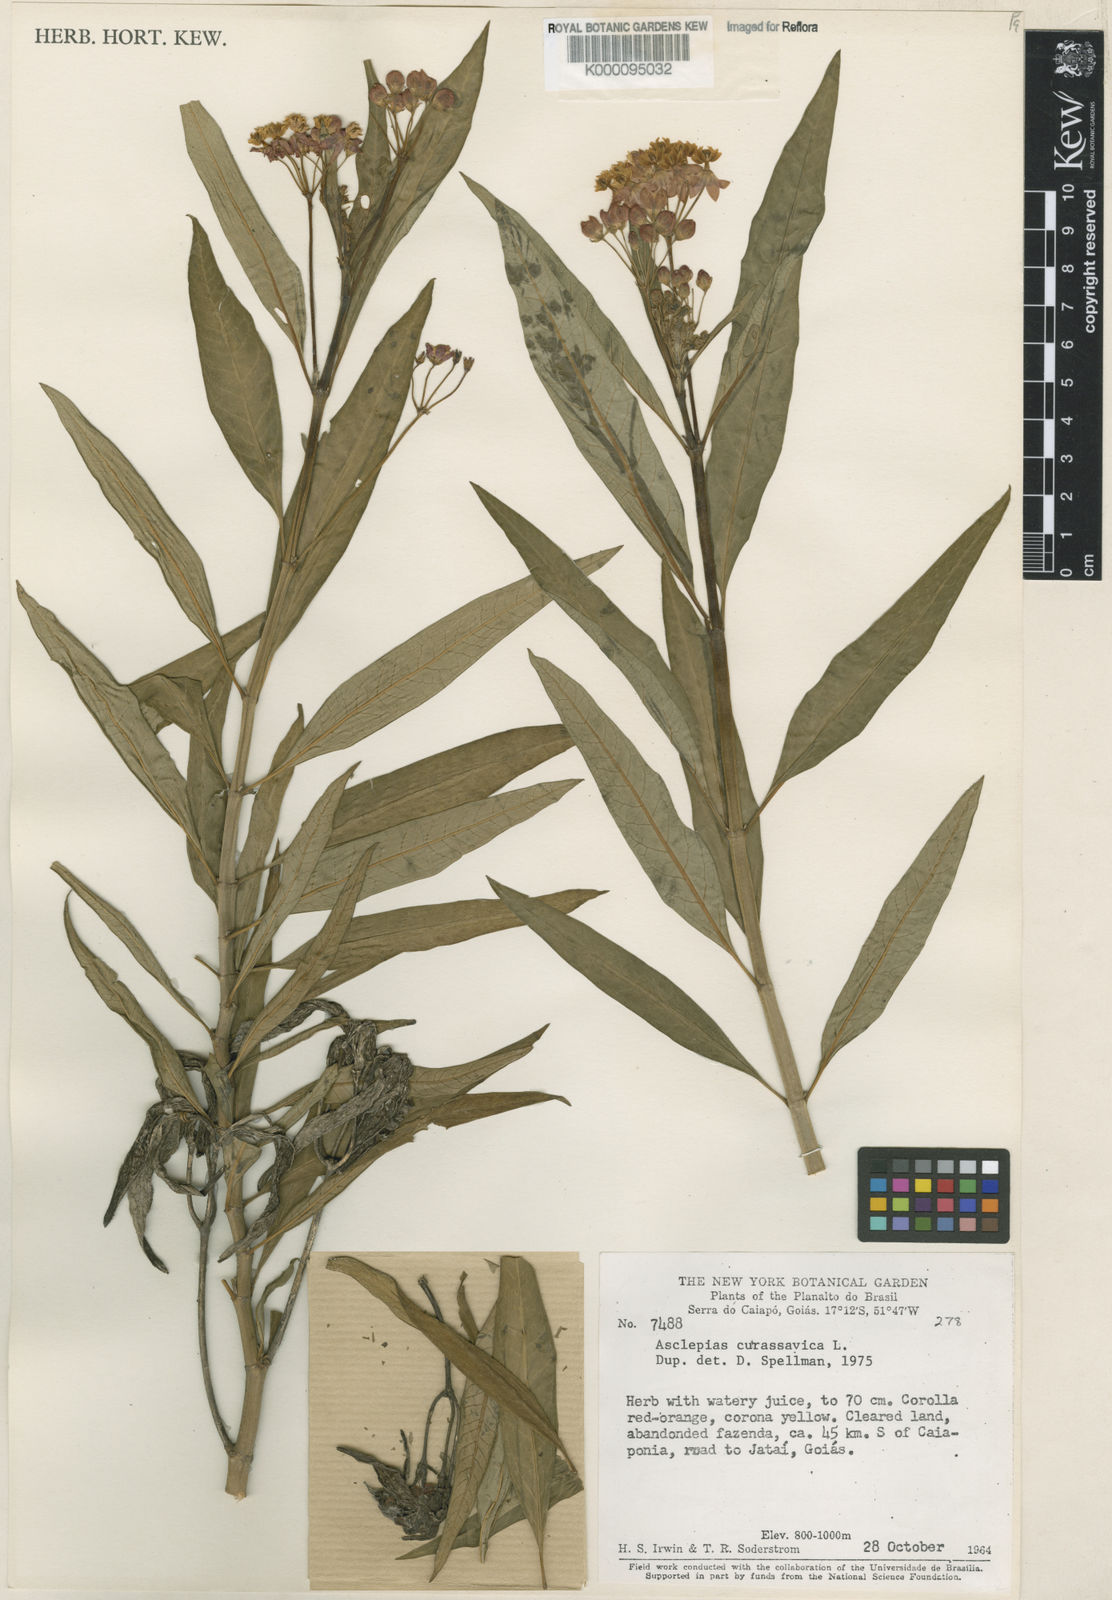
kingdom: Plantae
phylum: Tracheophyta
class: Magnoliopsida
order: Gentianales
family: Apocynaceae
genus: Asclepias
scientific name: Asclepias curassavica
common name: Bloodflower
